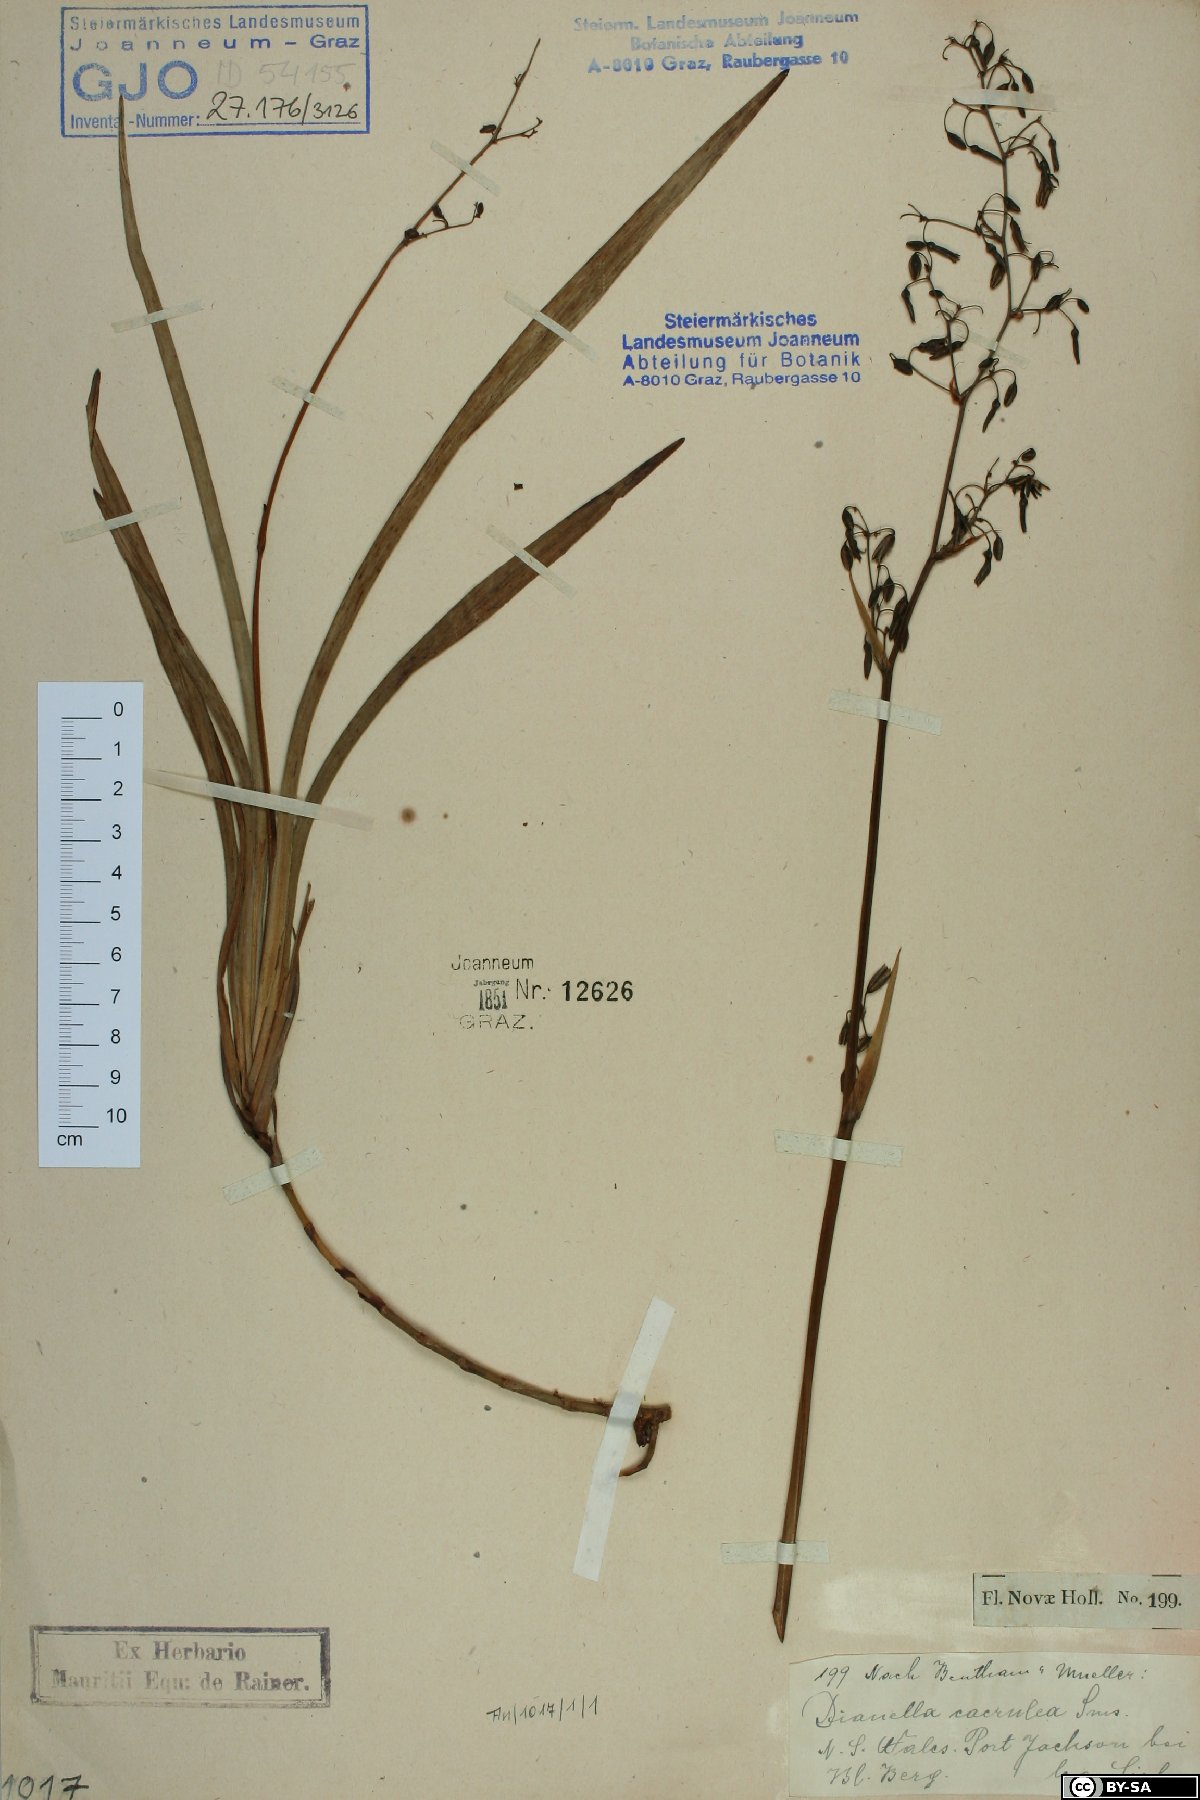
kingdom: Plantae
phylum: Tracheophyta
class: Liliopsida
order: Asparagales
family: Asphodelaceae
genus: Dianella
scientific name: Dianella caerulea
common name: Blue flax-lily
